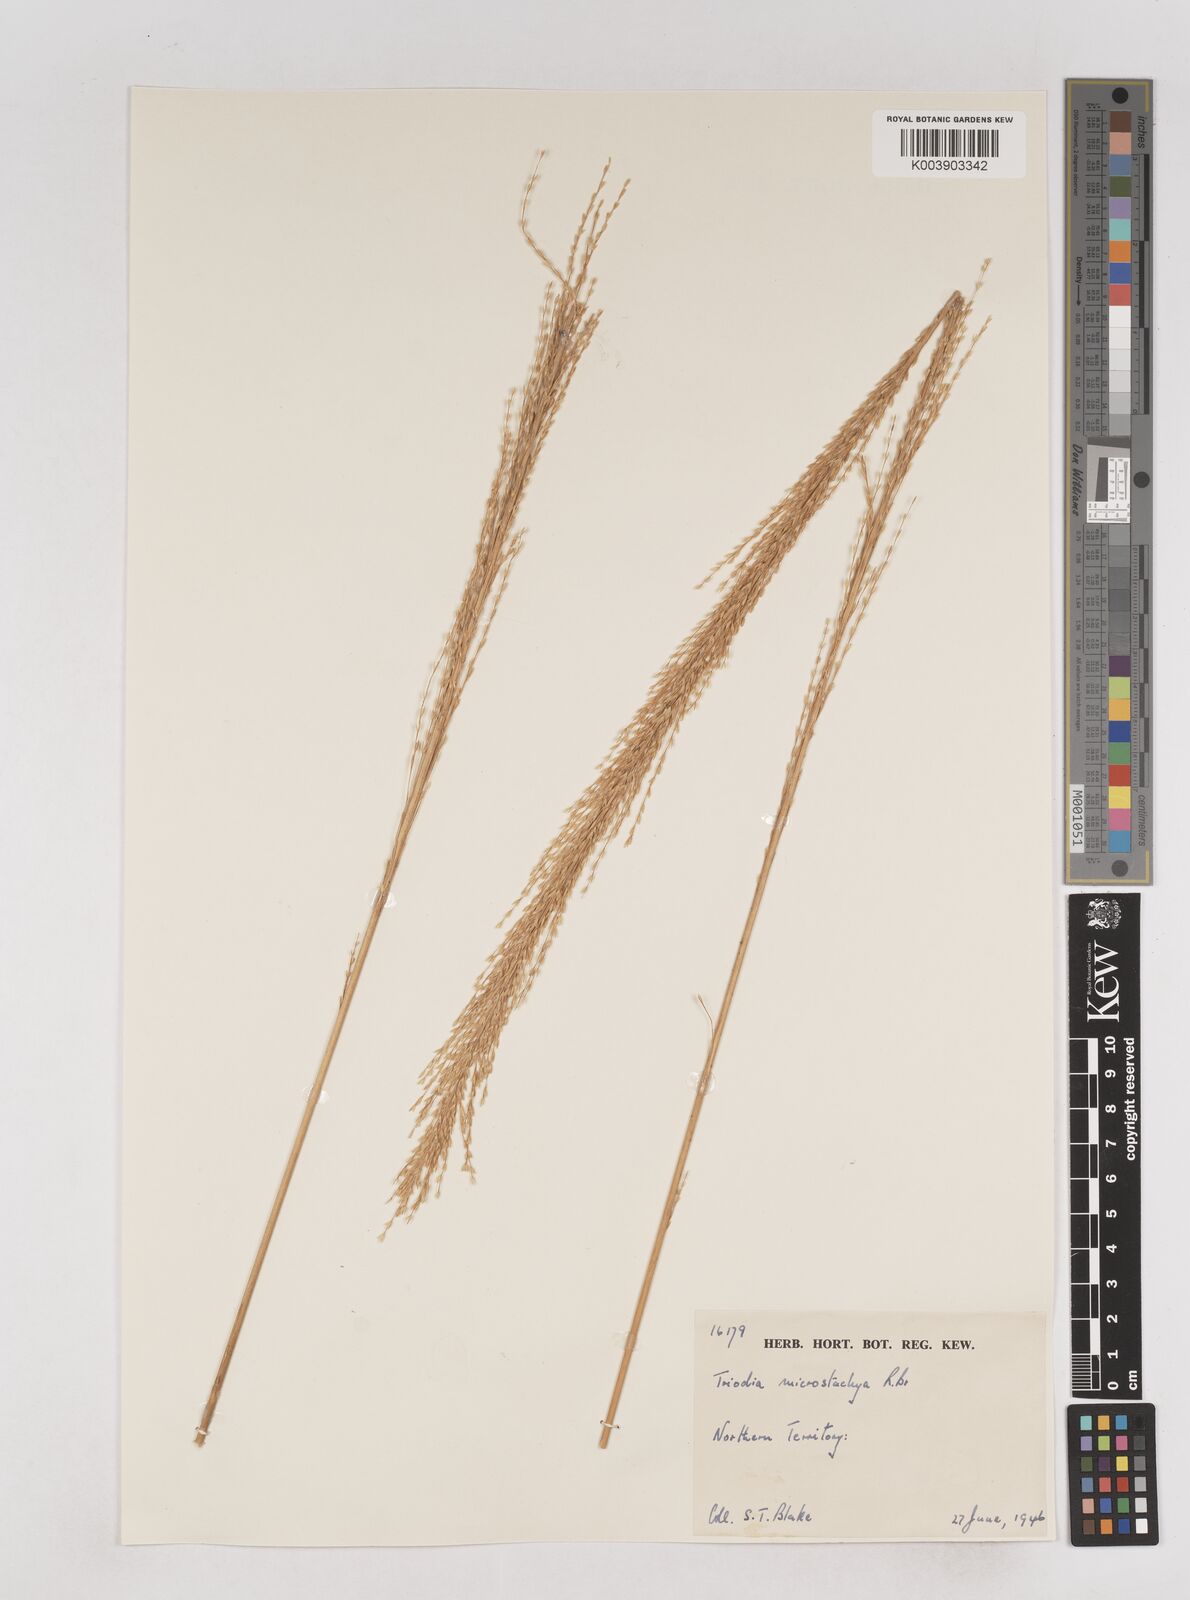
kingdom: Plantae
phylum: Tracheophyta
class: Liliopsida
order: Poales
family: Poaceae
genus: Triodia
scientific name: Triodia microstachya
